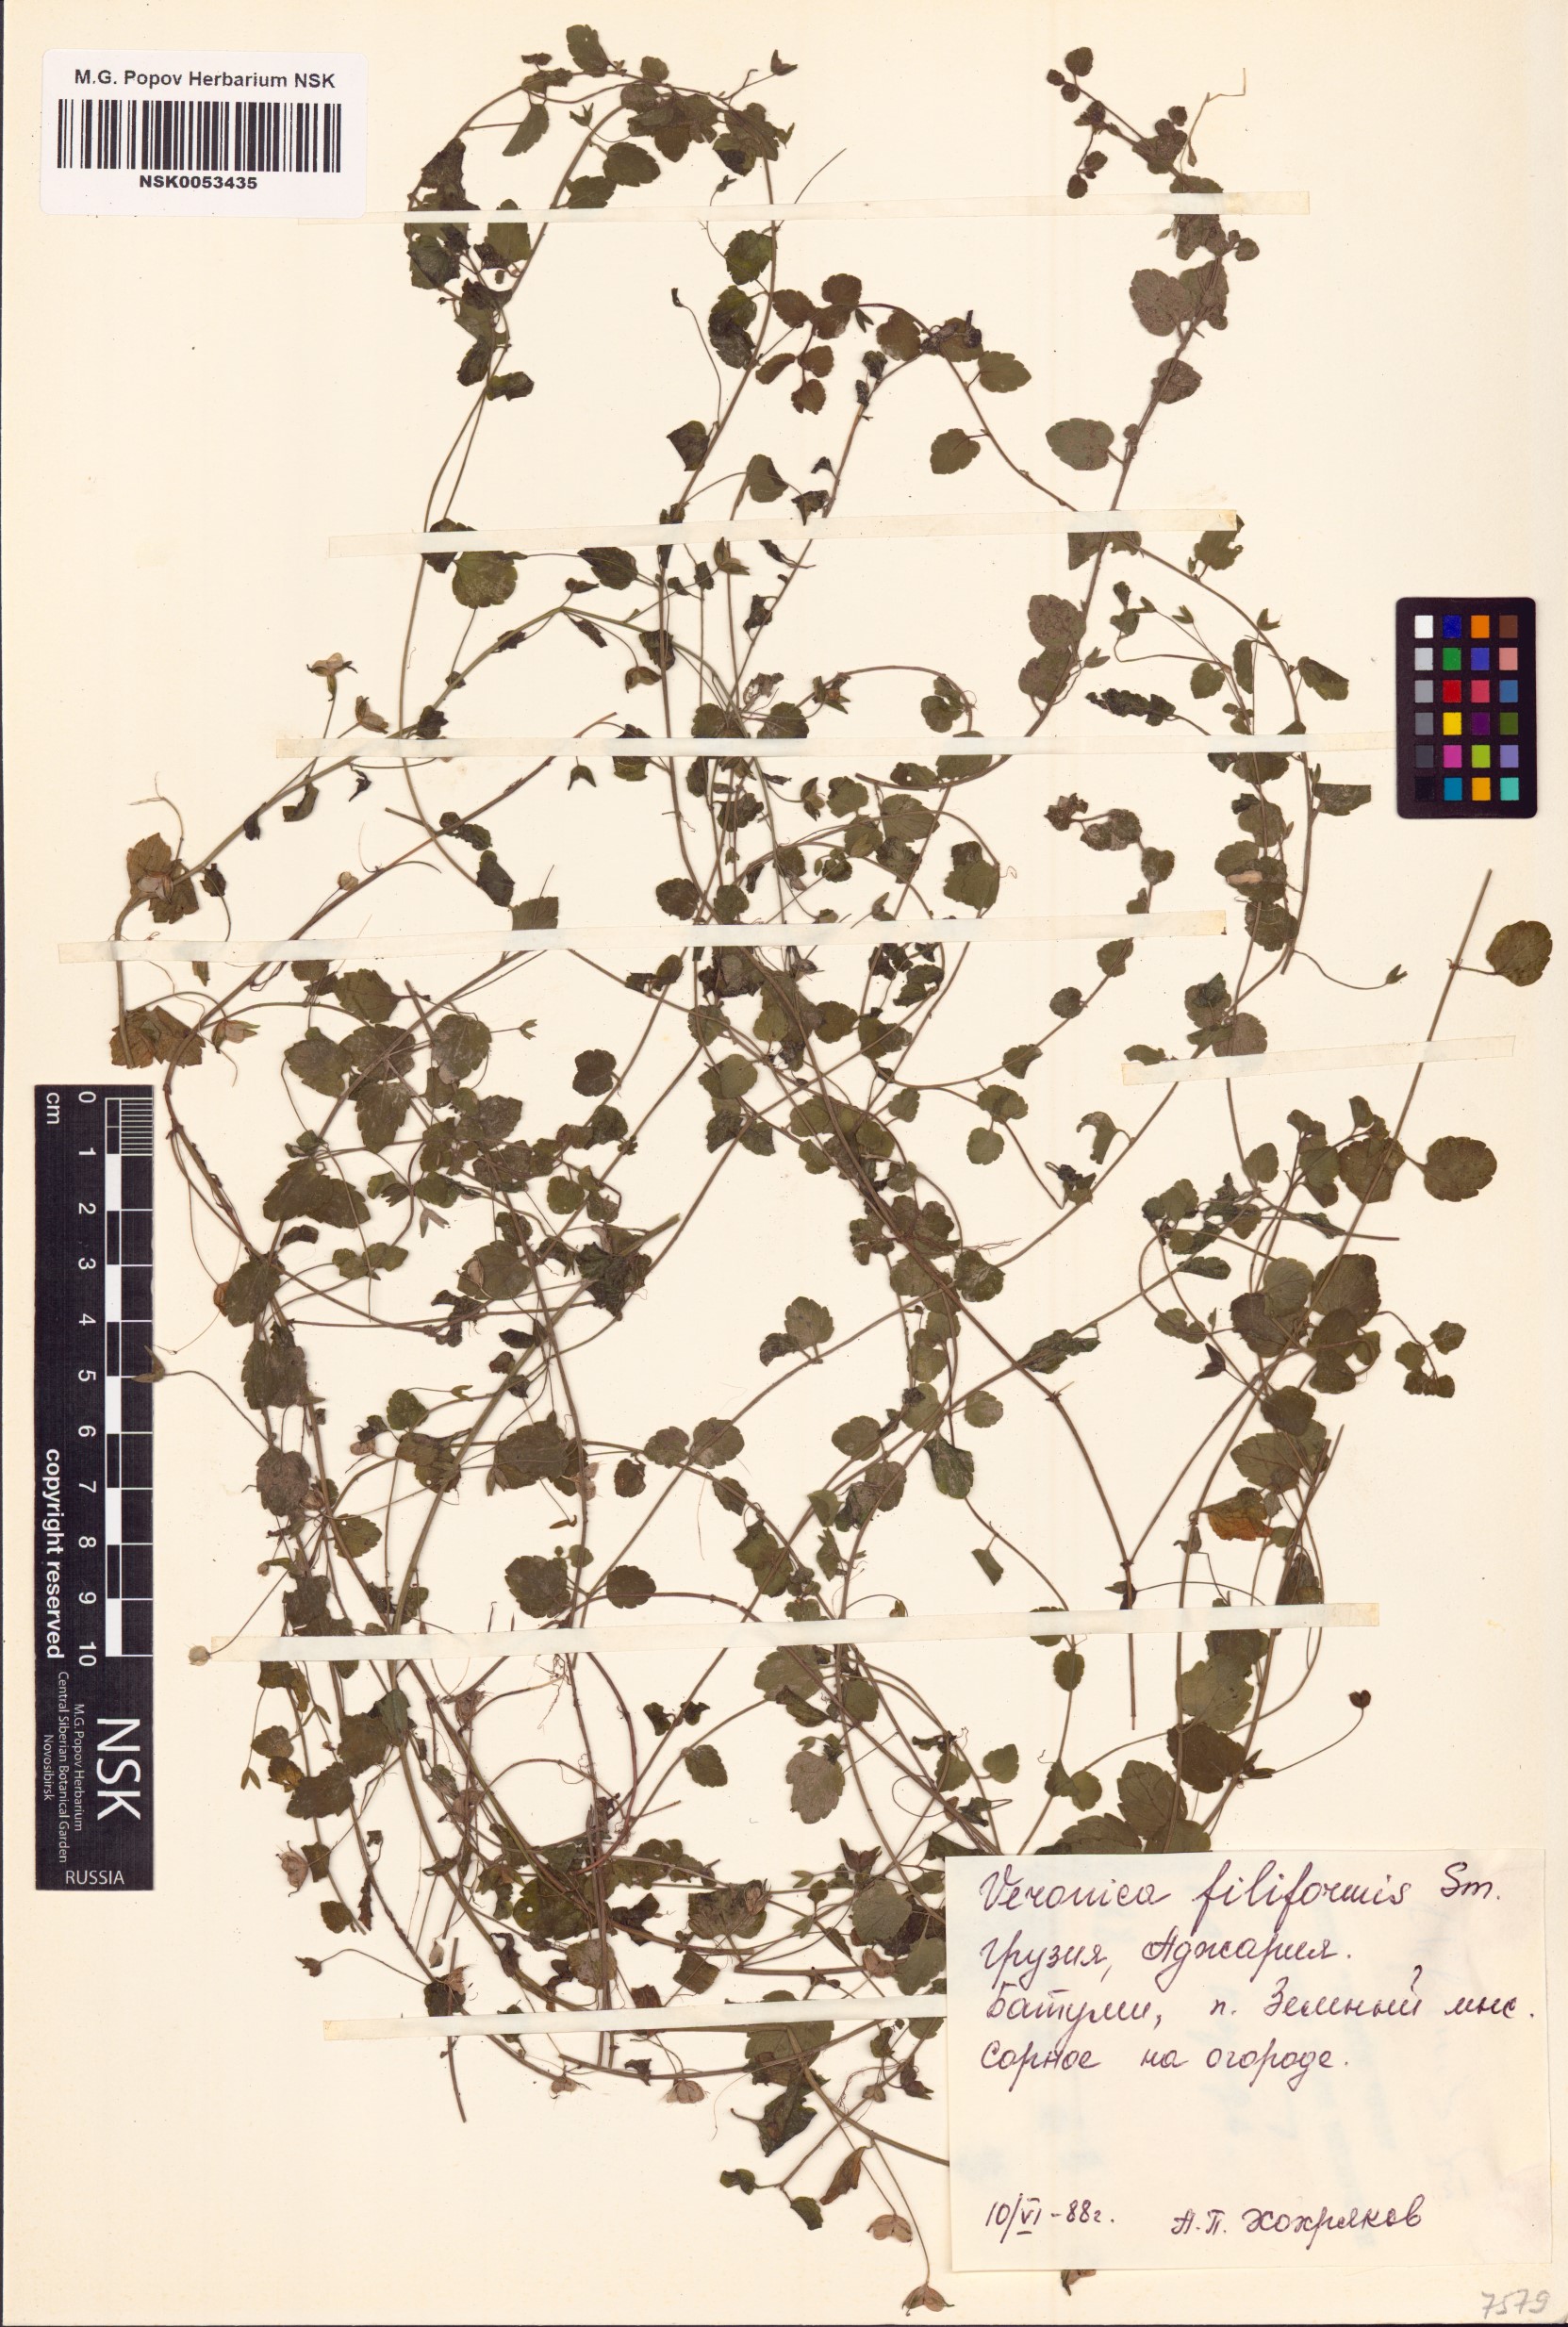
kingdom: Plantae
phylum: Tracheophyta
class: Magnoliopsida
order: Lamiales
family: Plantaginaceae
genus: Veronica
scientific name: Veronica filiformis
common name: Slender speedwell
